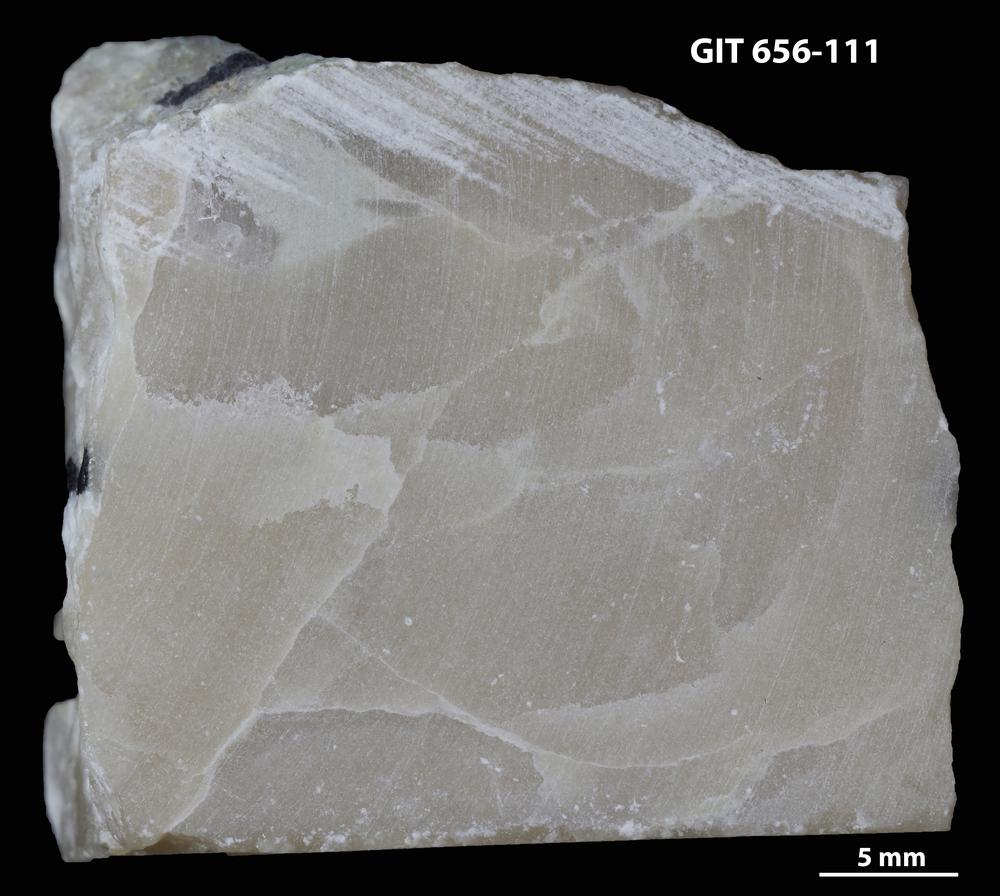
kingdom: Animalia
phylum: Porifera
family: Actinostromatidae
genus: Plectostroma
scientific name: Plectostroma
